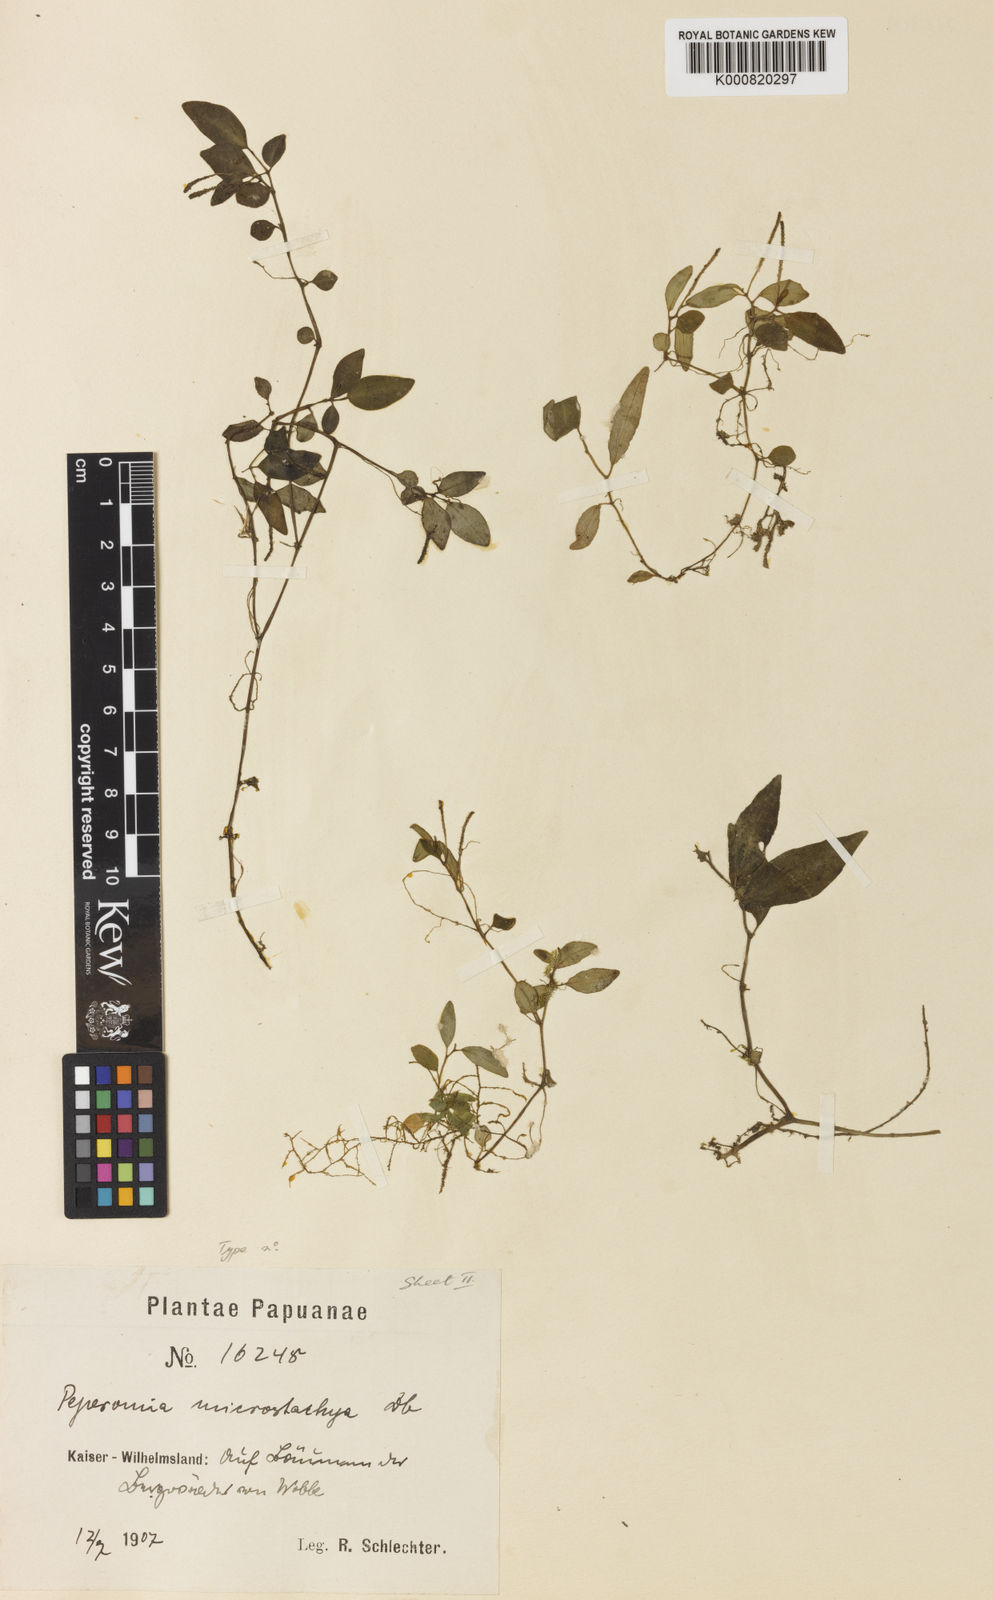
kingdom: Plantae
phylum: Tracheophyta
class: Magnoliopsida
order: Piperales
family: Piperaceae
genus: Peperomia
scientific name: Peperomia microstachya
